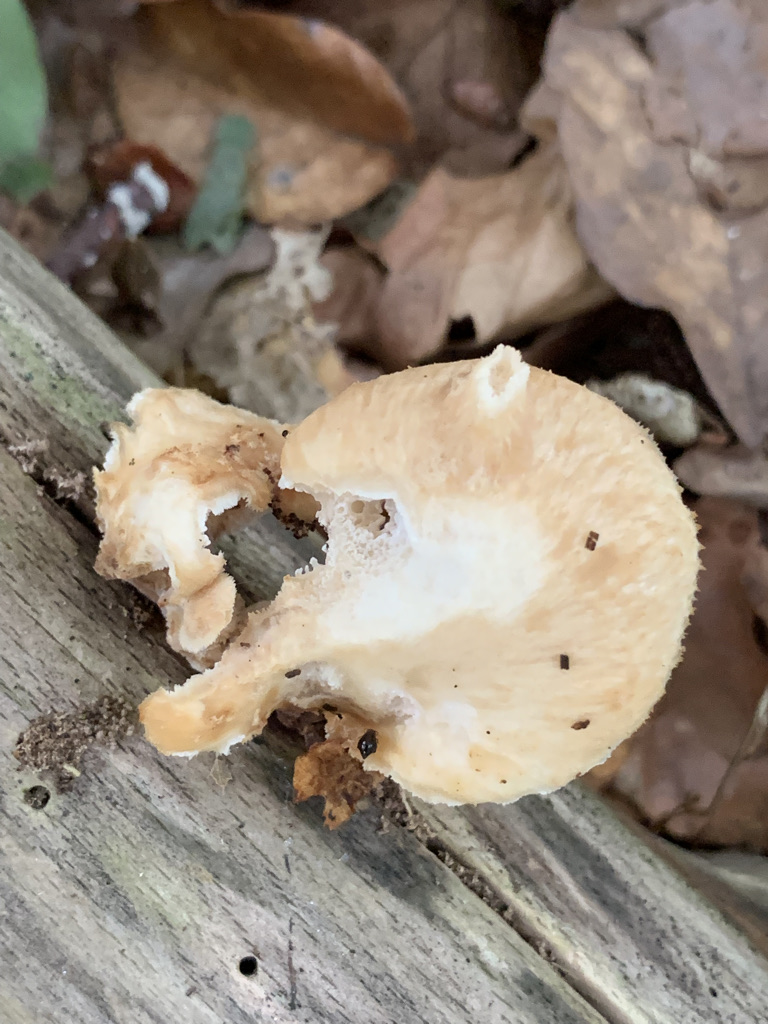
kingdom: Fungi
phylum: Basidiomycota
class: Agaricomycetes
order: Polyporales
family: Polyporaceae
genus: Polyporus
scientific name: Polyporus tuberaster
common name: knoldet stilkporesvamp
